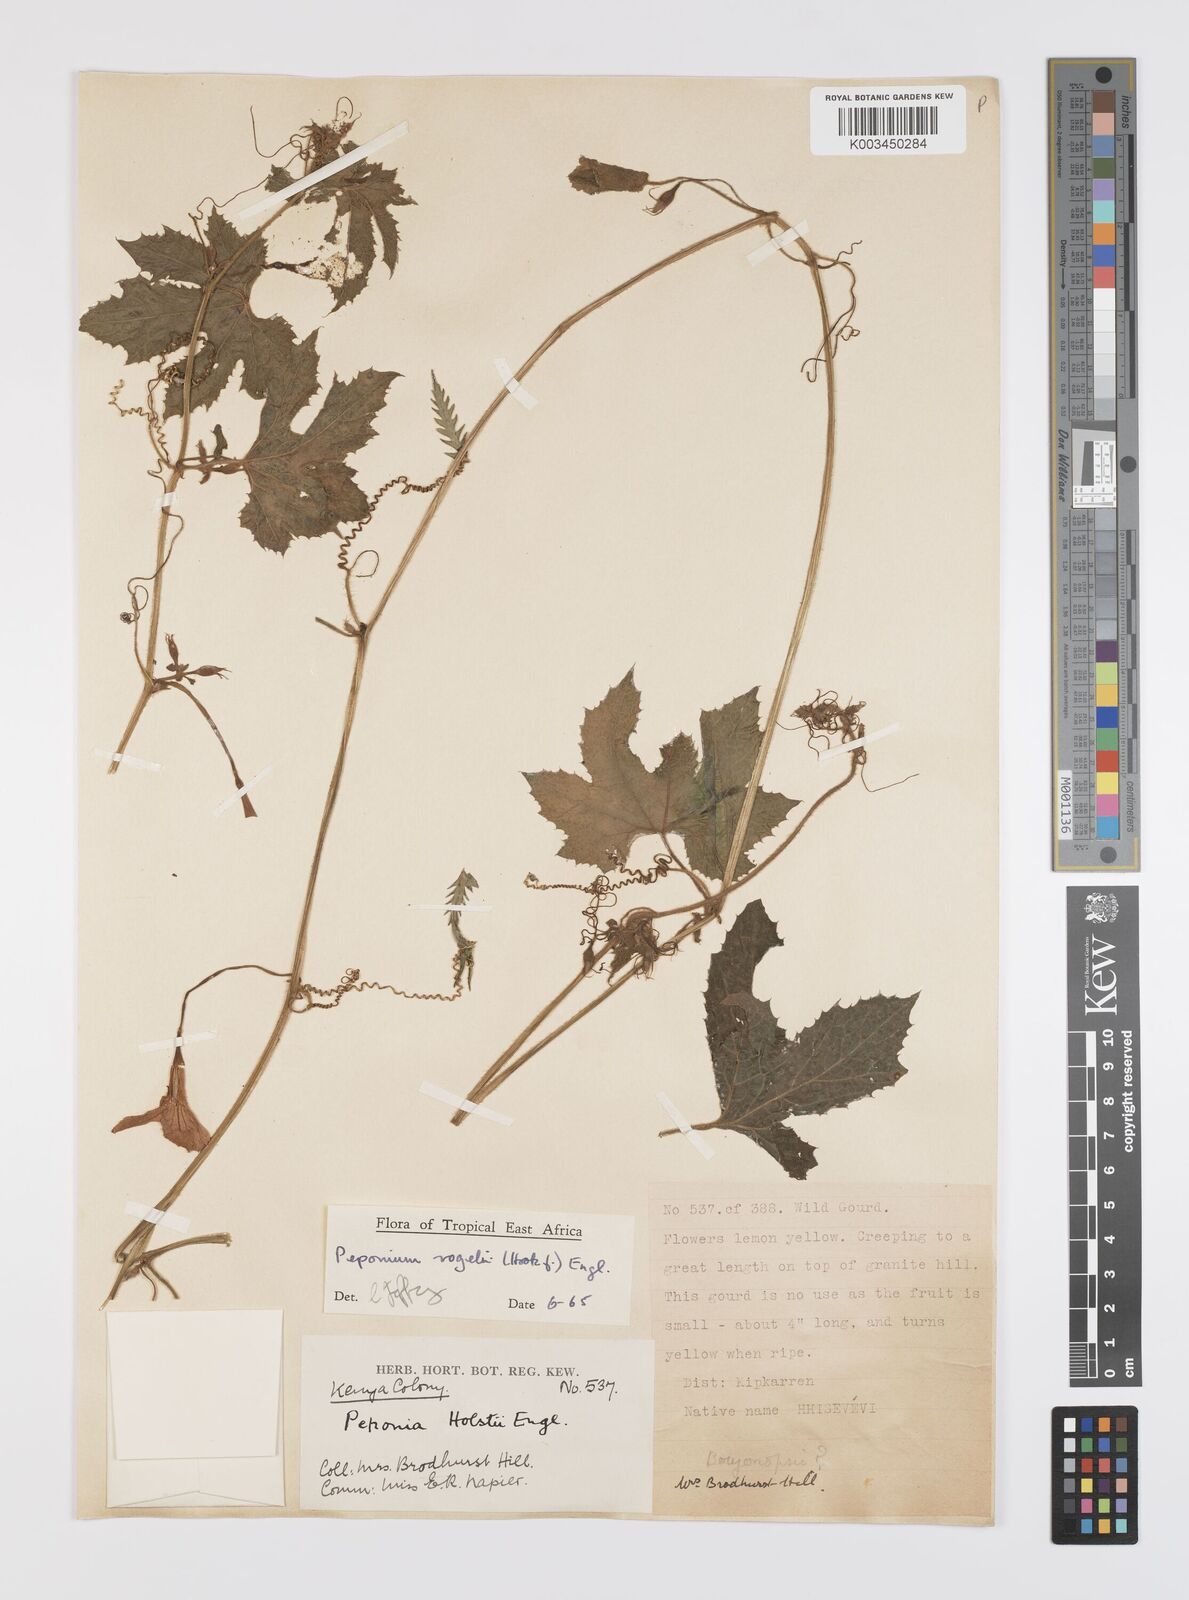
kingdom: Plantae
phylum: Tracheophyta
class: Magnoliopsida
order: Cucurbitales
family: Cucurbitaceae
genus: Peponium
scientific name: Peponium vogelii
